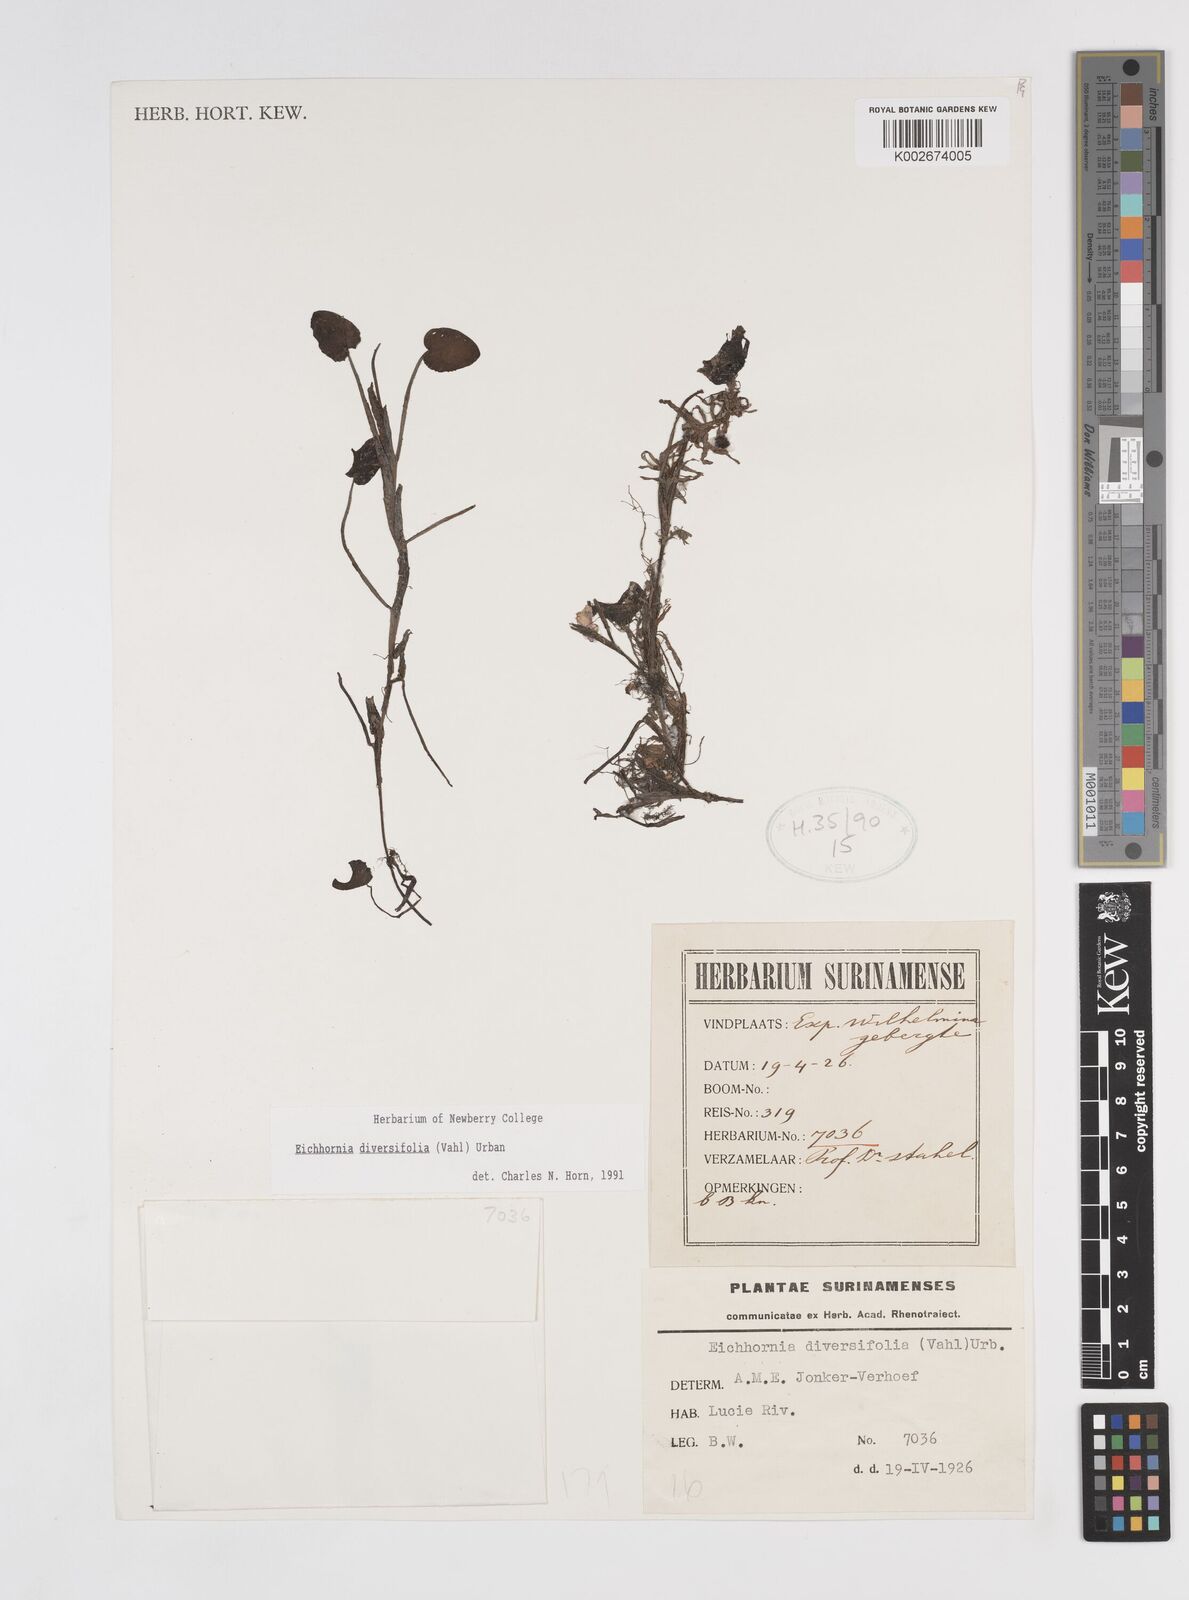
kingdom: Plantae
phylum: Tracheophyta
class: Liliopsida
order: Commelinales
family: Pontederiaceae
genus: Pontederia
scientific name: Pontederia diversifolia
